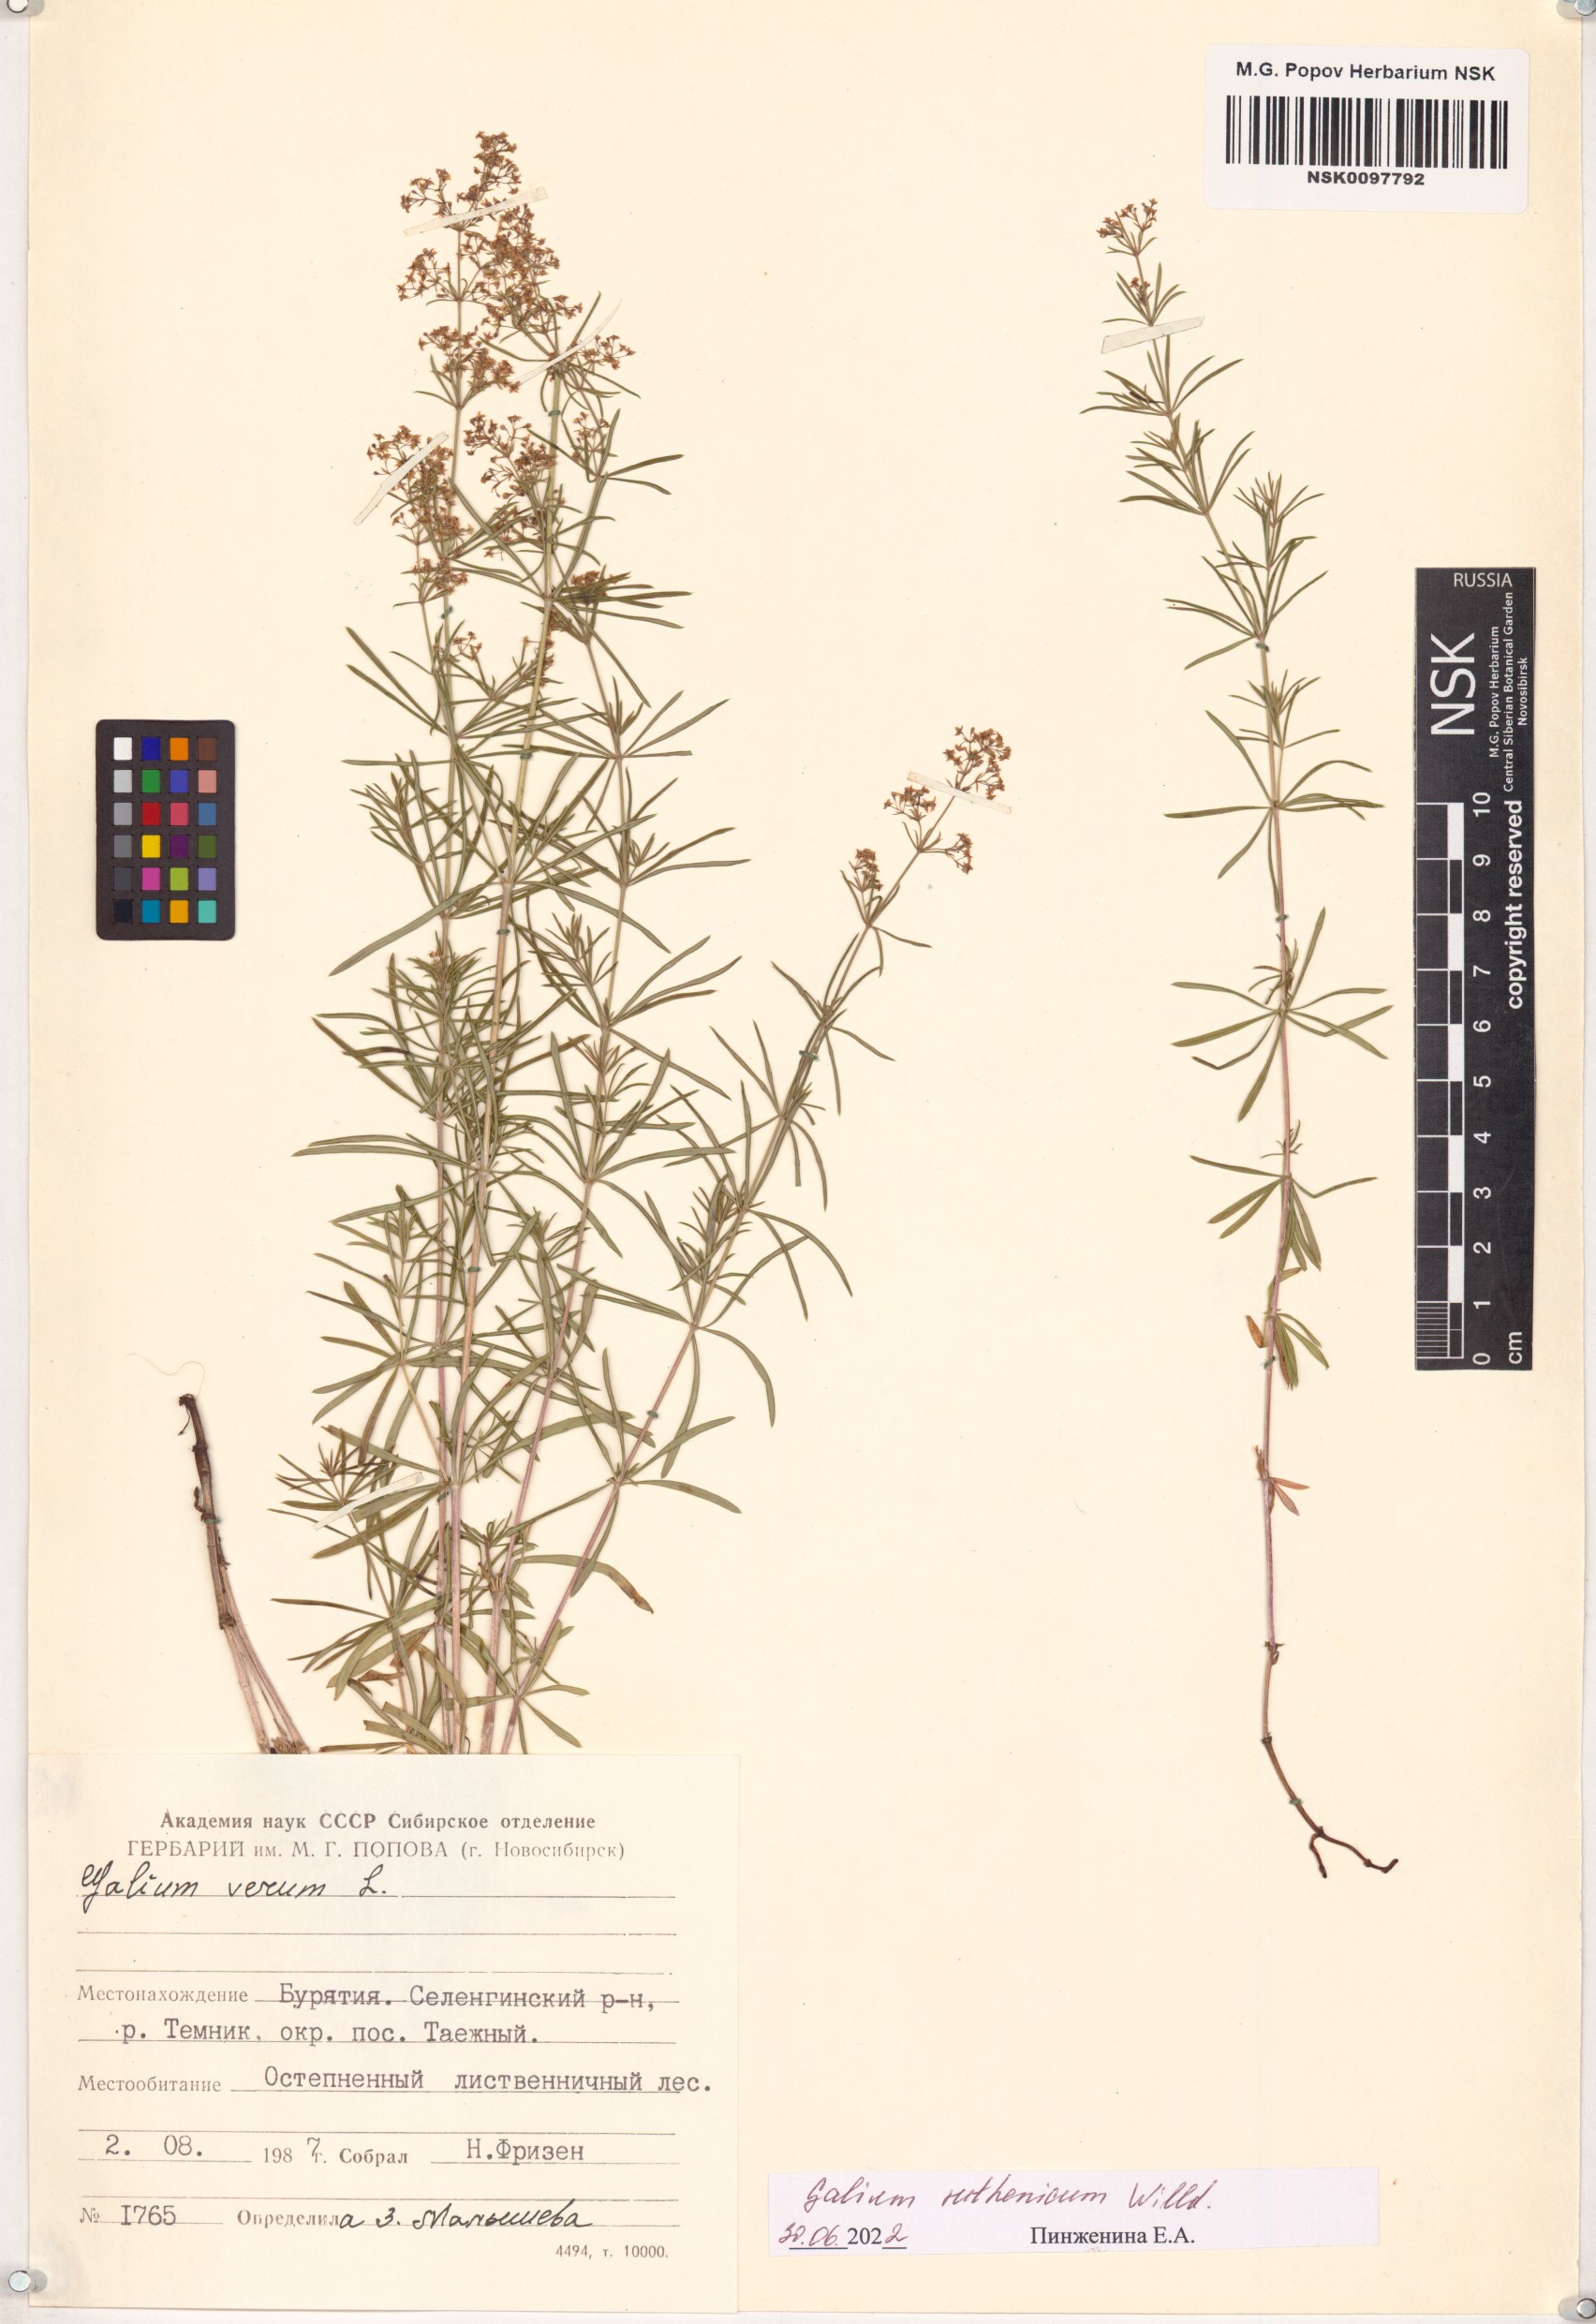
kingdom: Plantae
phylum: Tracheophyta
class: Magnoliopsida
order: Gentianales
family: Rubiaceae
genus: Galium
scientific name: Galium verum
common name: Lady's bedstraw
